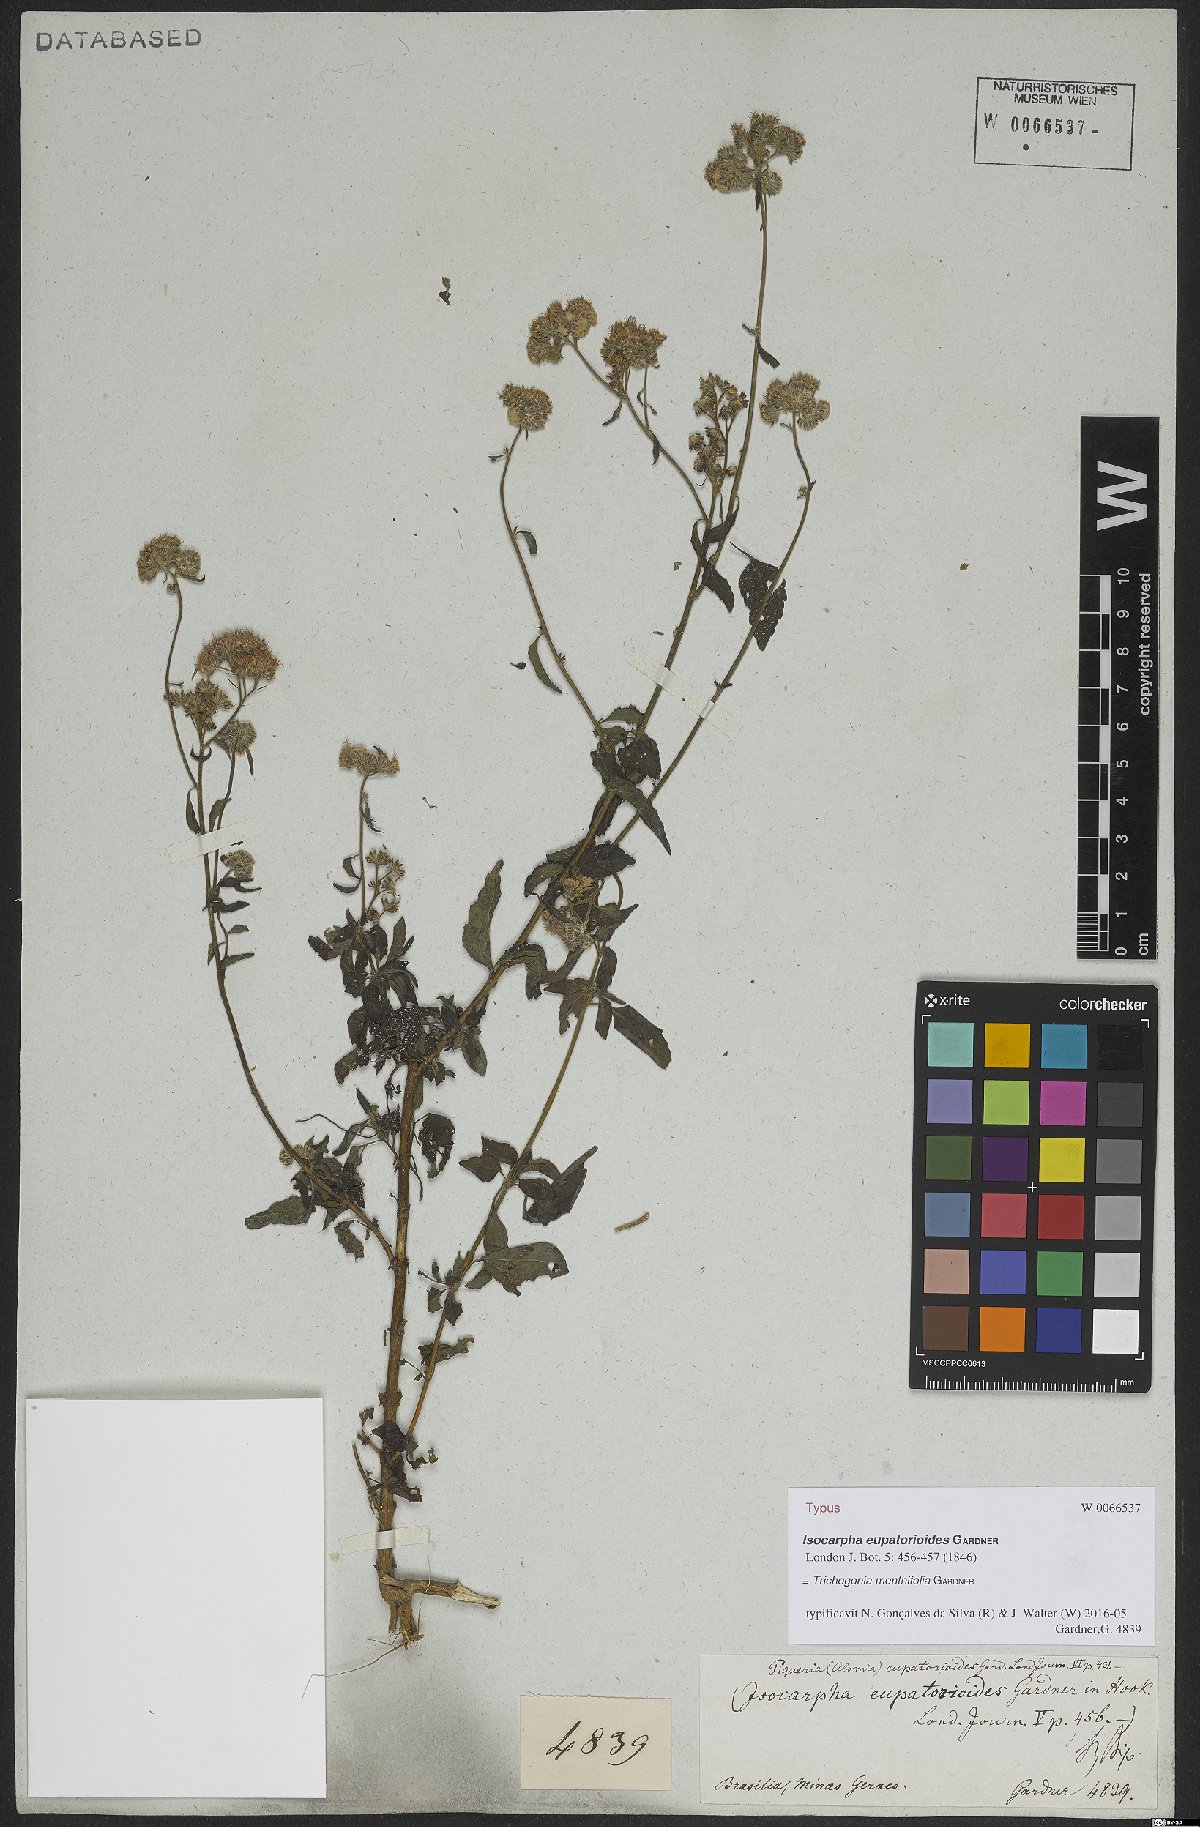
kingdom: Plantae
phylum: Tracheophyta
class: Magnoliopsida
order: Asterales
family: Asteraceae
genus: Trichogonia
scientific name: Trichogonia menthifolia
